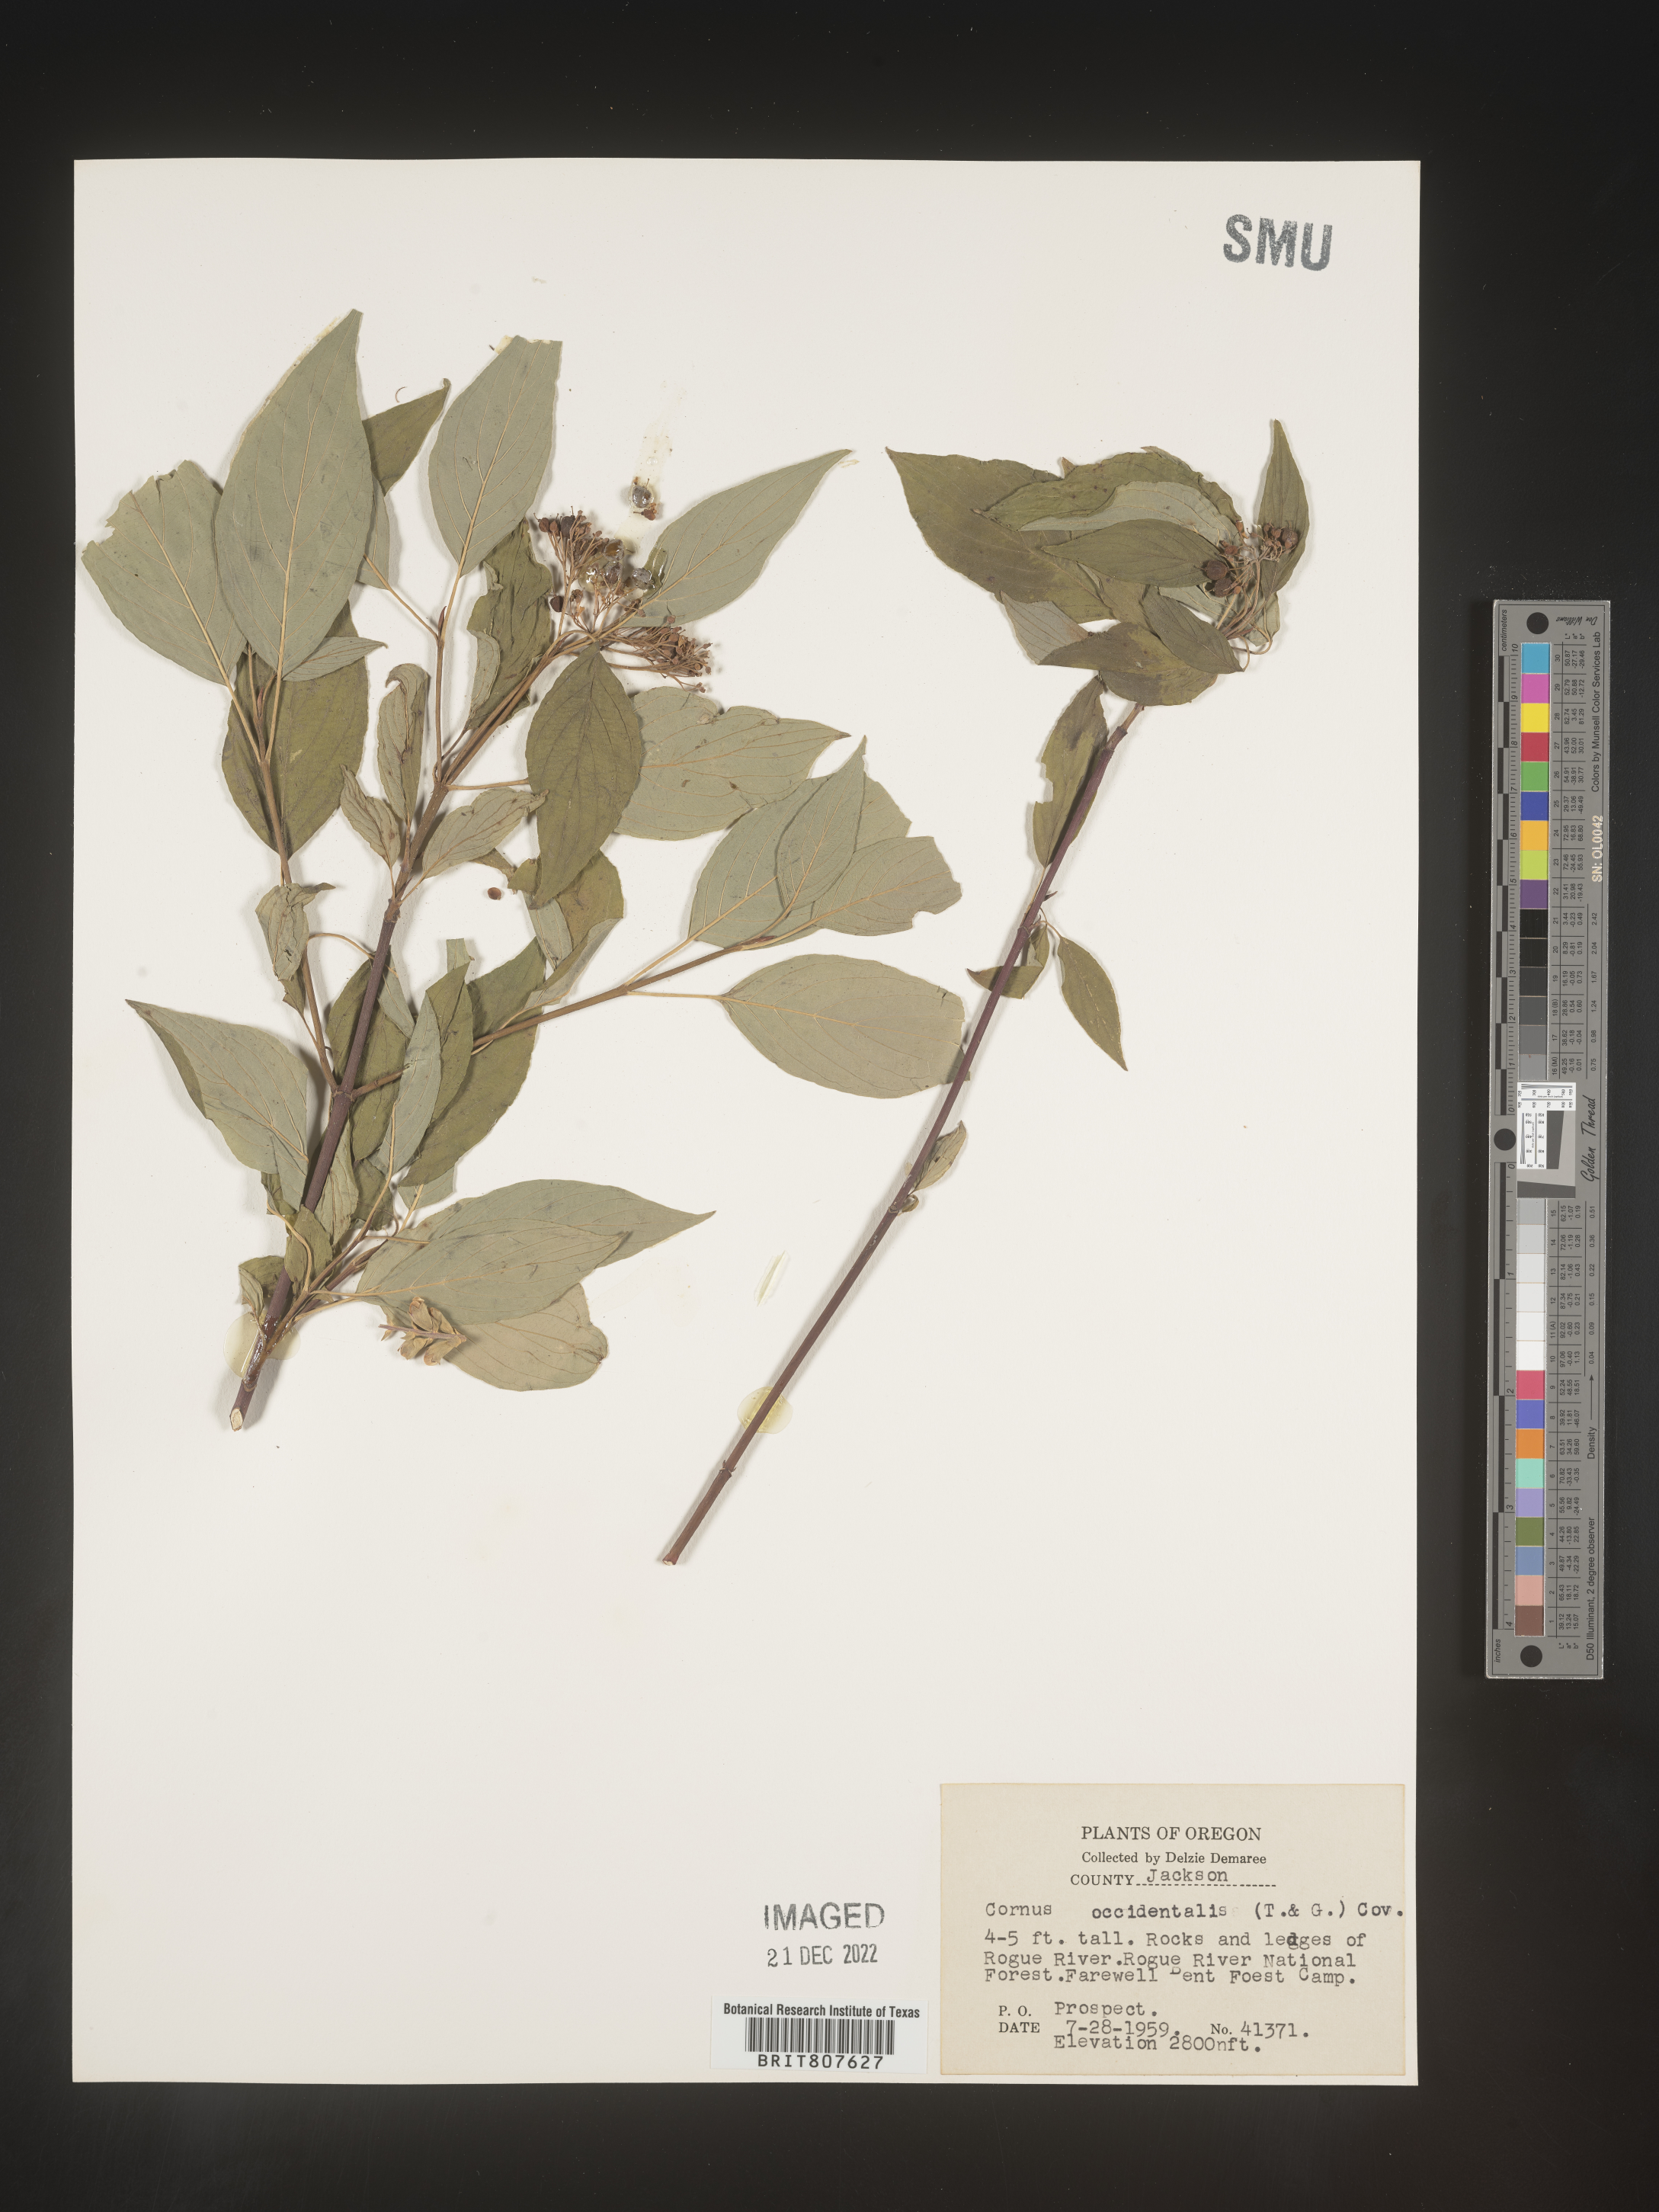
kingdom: Plantae
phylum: Tracheophyta
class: Magnoliopsida
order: Cornales
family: Cornaceae
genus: Cornus
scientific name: Cornus
